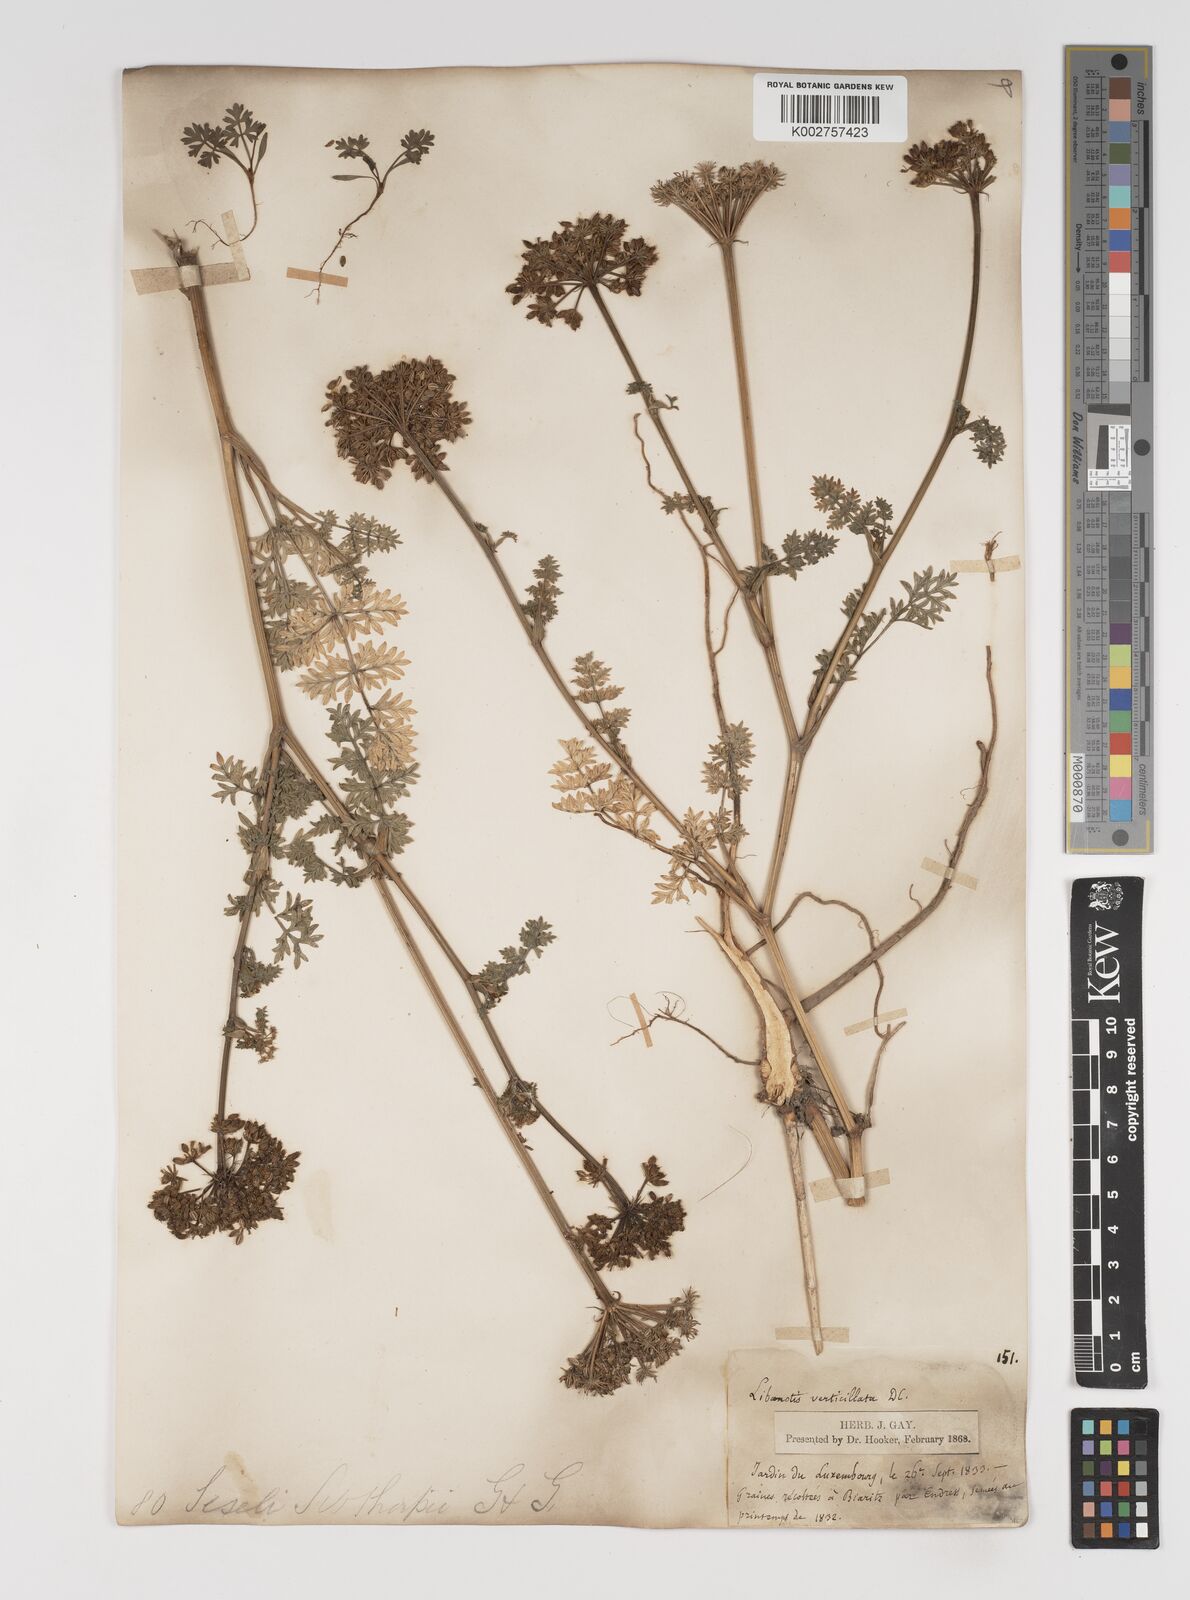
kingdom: Plantae
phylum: Tracheophyta
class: Magnoliopsida
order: Apiales
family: Apiaceae
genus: Seseli
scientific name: Seseli sibthorpii
